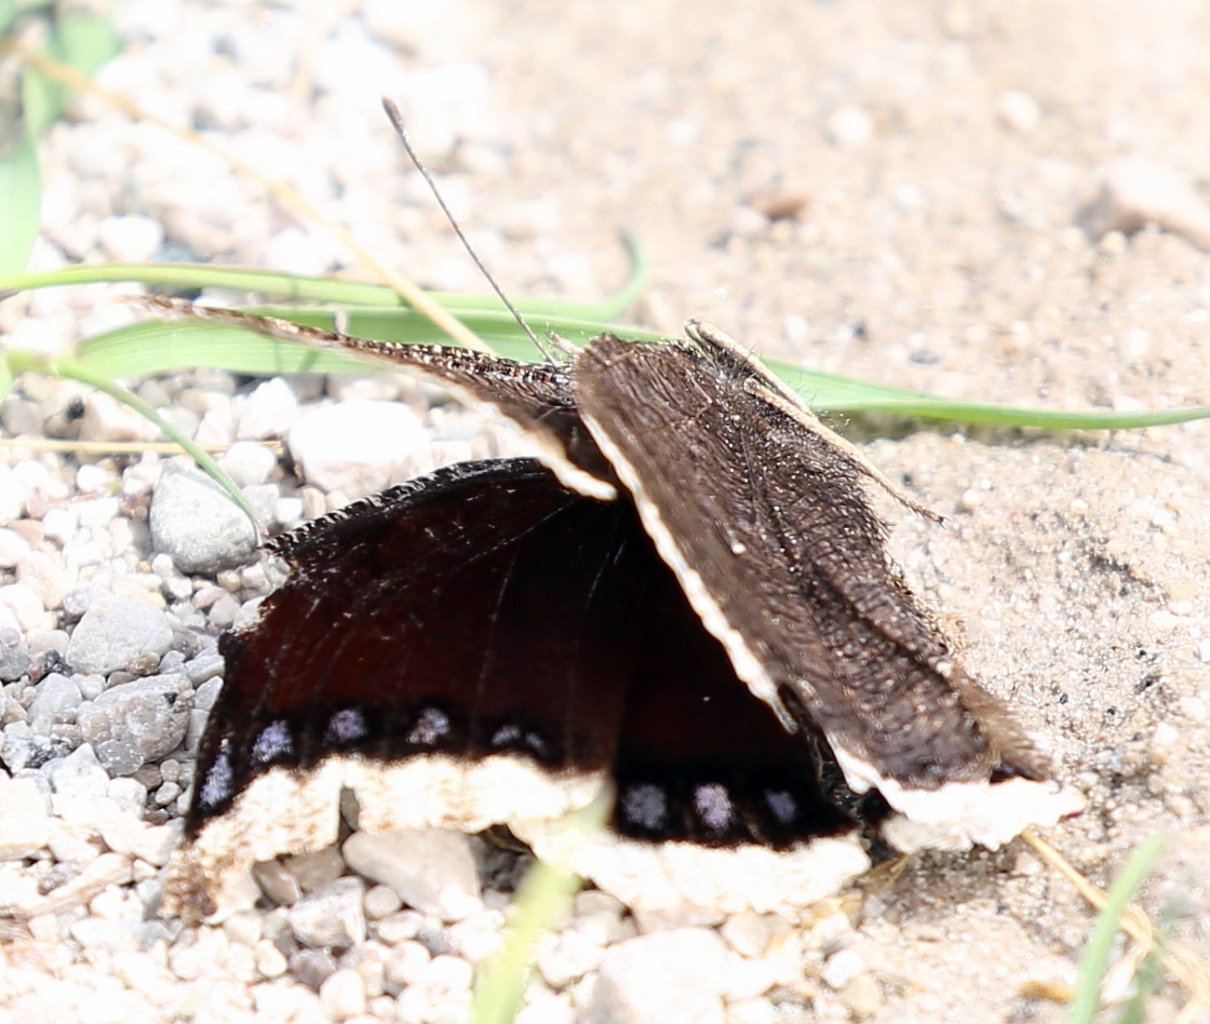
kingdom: Animalia
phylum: Arthropoda
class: Insecta
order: Lepidoptera
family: Nymphalidae
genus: Nymphalis
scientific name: Nymphalis antiopa
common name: Mourning Cloak
